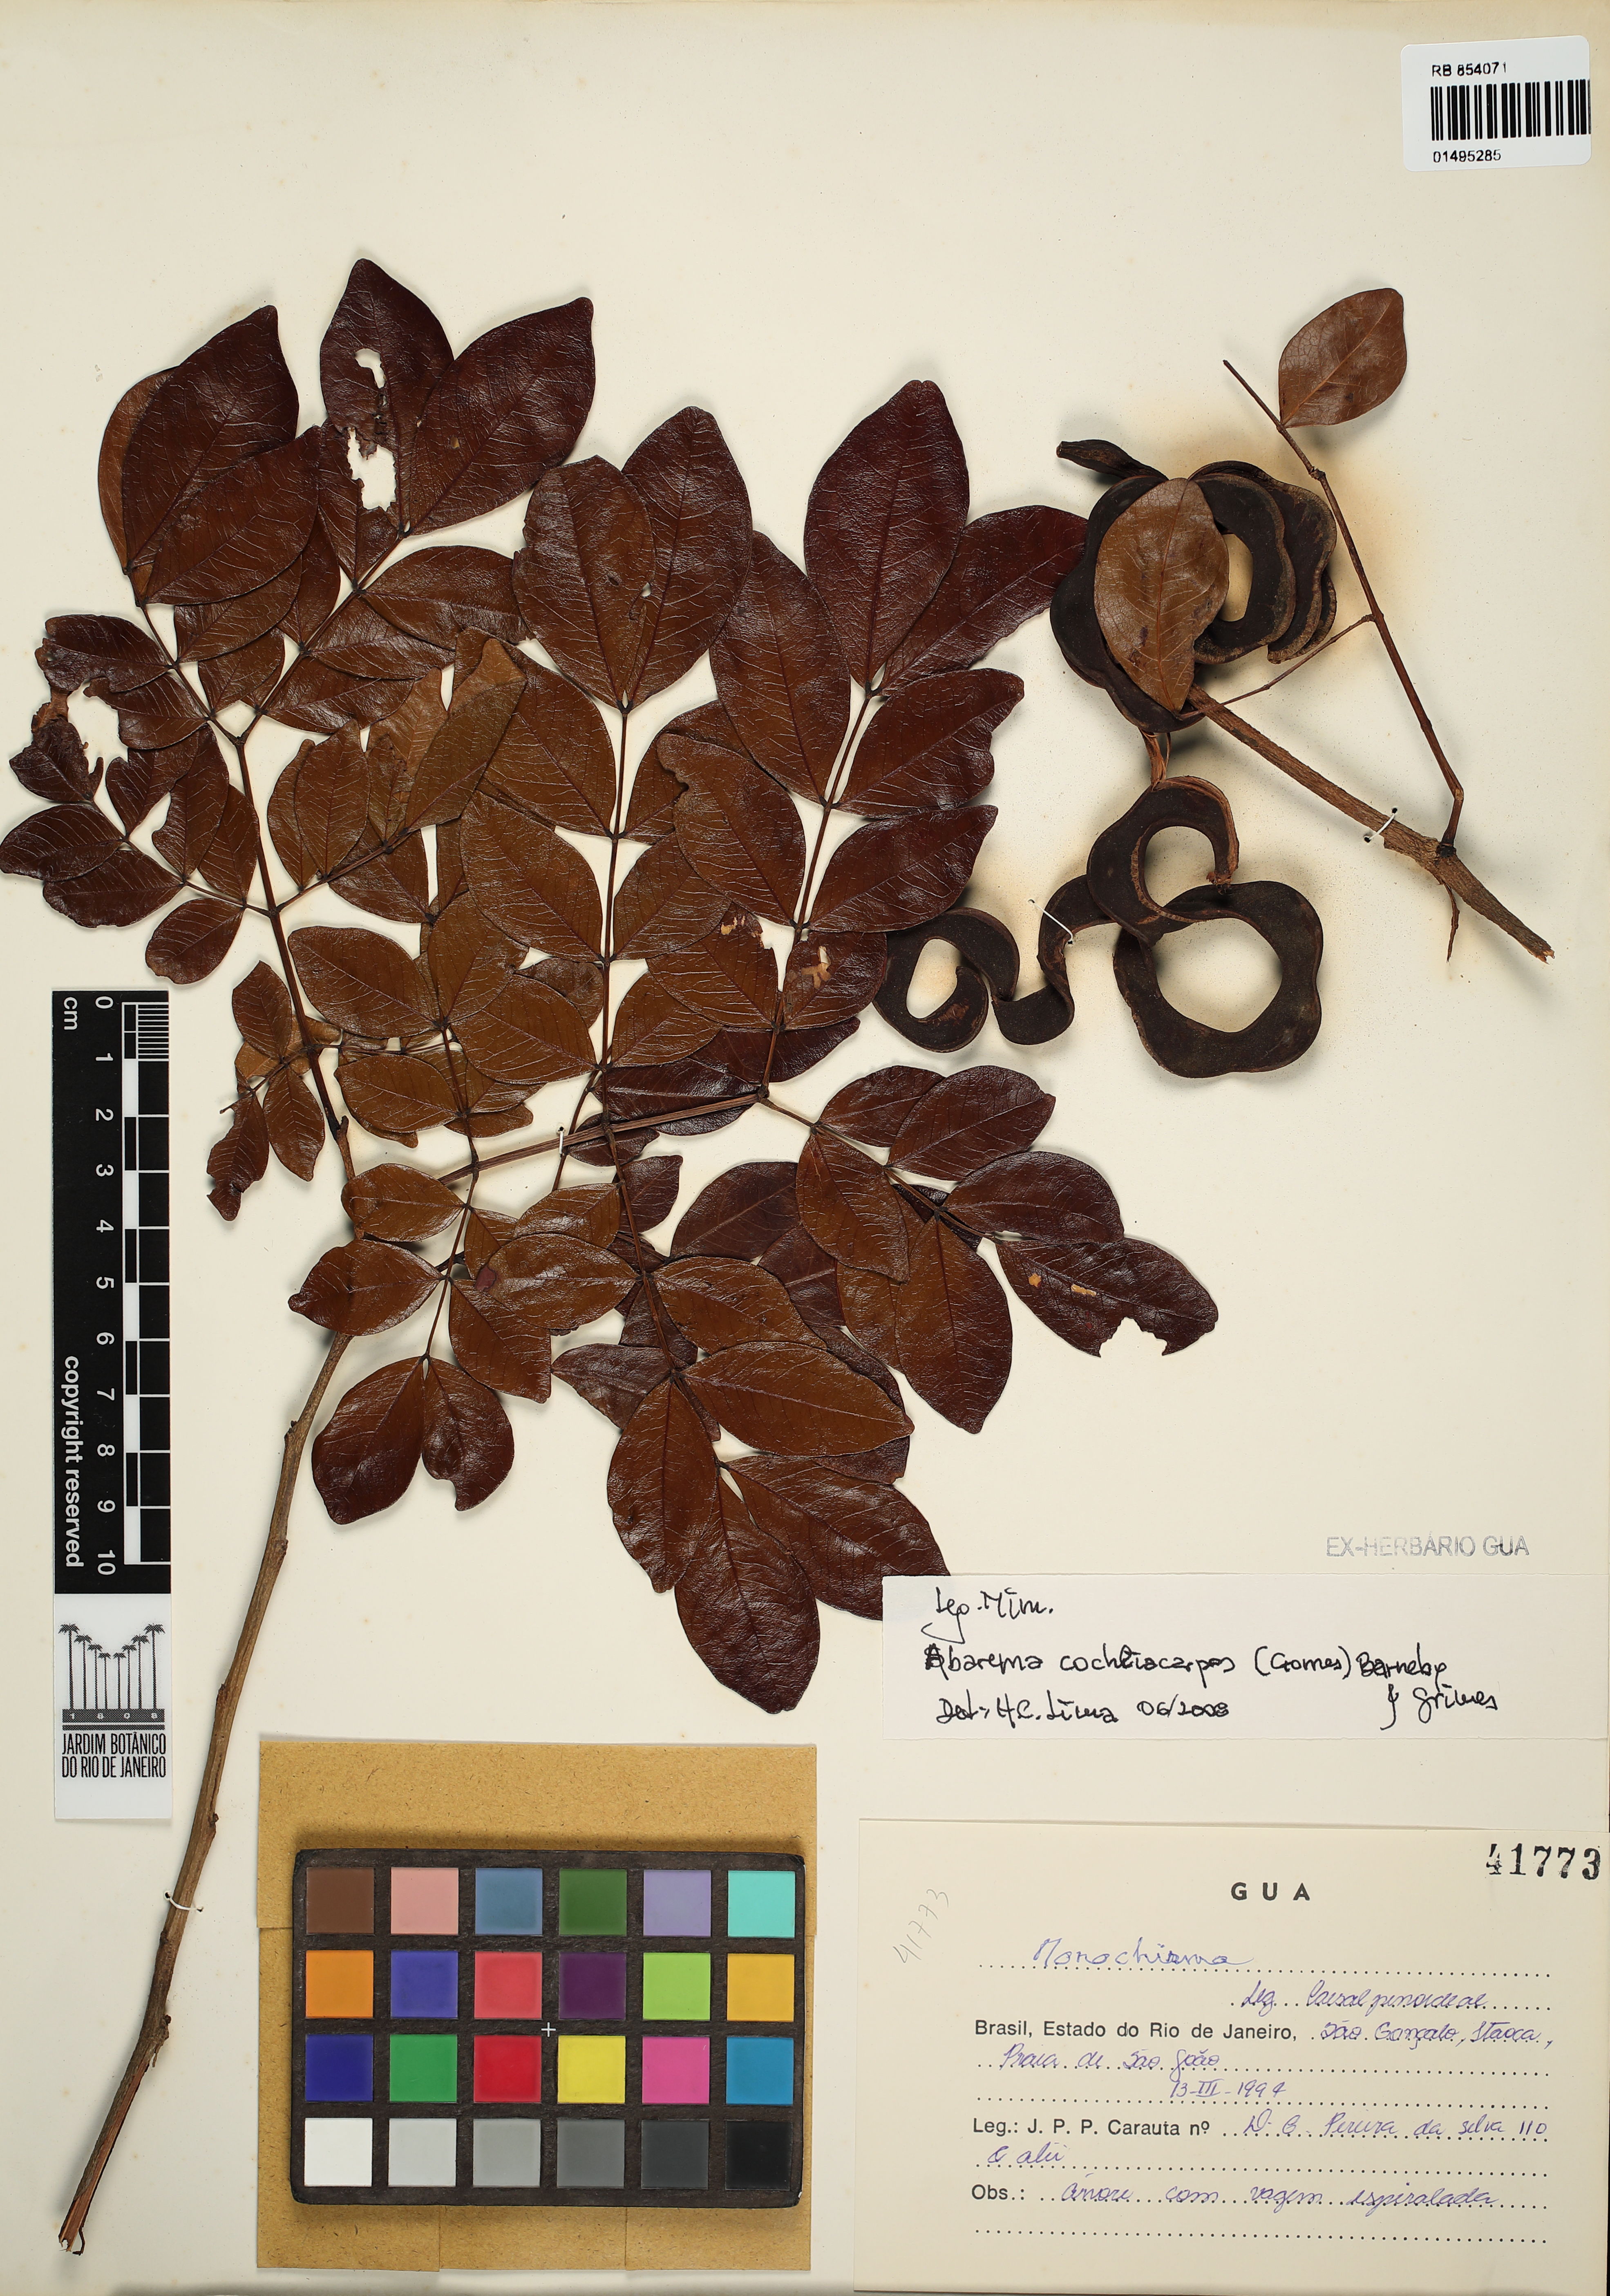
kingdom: Plantae
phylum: Tracheophyta
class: Magnoliopsida
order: Fabales
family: Fabaceae
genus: Abarema
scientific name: Abarema cochliacarpos
